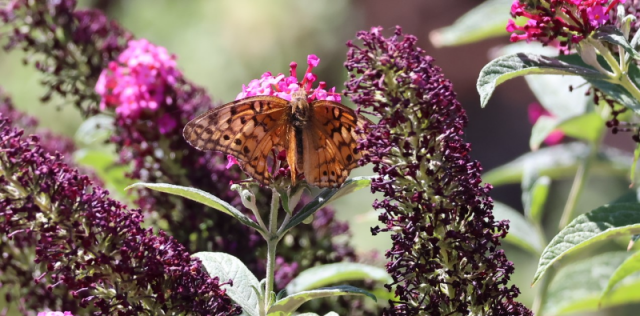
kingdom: Animalia
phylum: Arthropoda
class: Insecta
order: Lepidoptera
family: Nymphalidae
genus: Euptoieta
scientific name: Euptoieta claudia
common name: Variegated Fritillary
